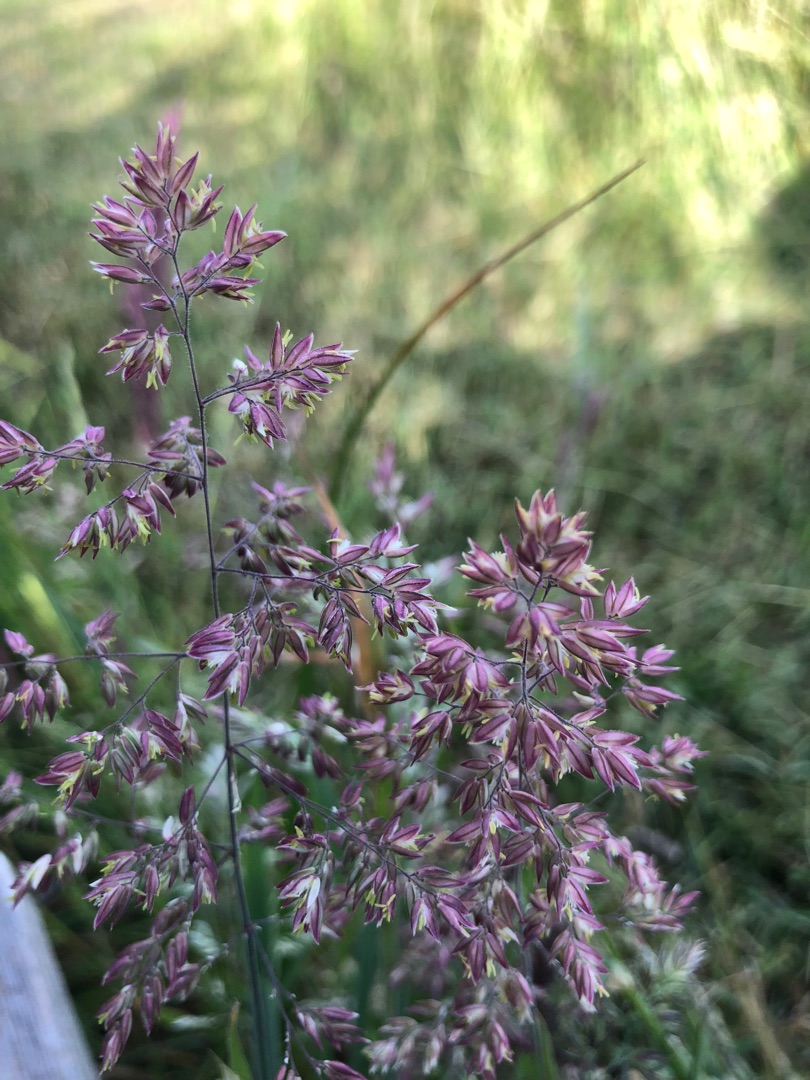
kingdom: Plantae
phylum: Tracheophyta
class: Liliopsida
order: Poales
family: Poaceae
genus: Holcus
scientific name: Holcus lanatus
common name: Fløjlsgræs
